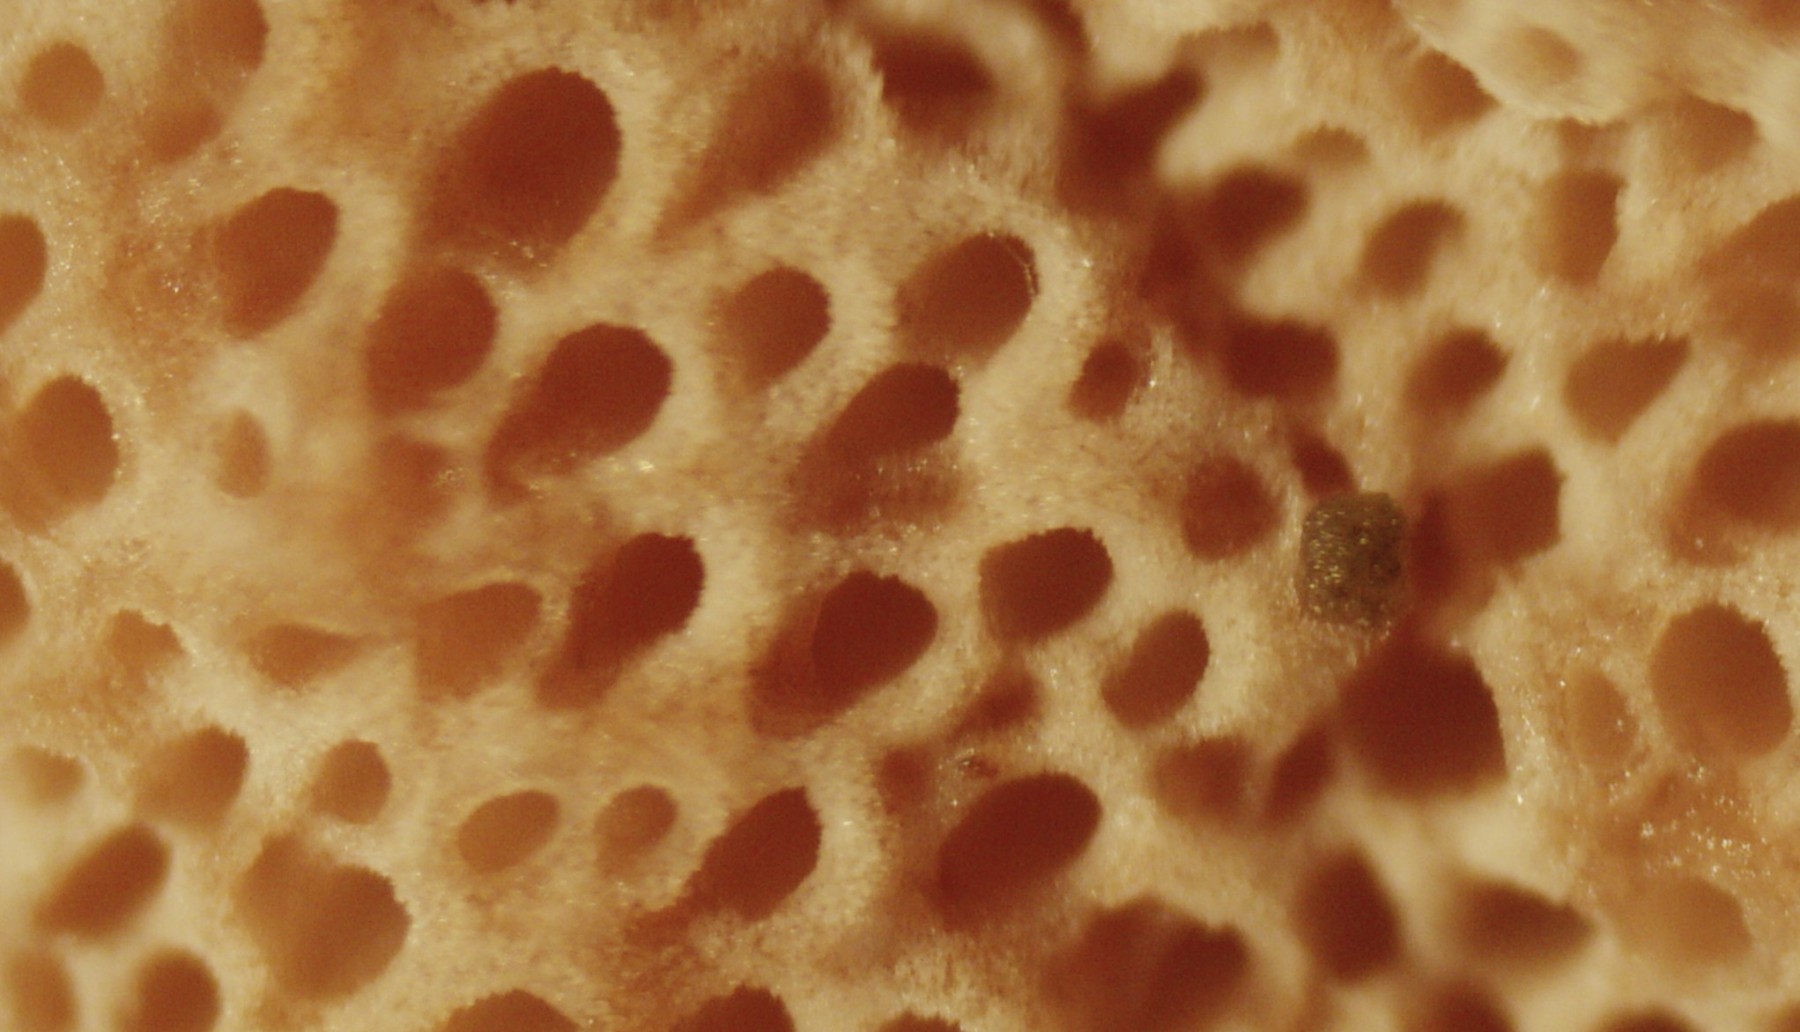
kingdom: Fungi
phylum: Basidiomycota
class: Agaricomycetes
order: Polyporales
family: Irpicaceae
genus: Vitreoporus
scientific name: Vitreoporus dichrous
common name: tofarvet foldporesvamp
